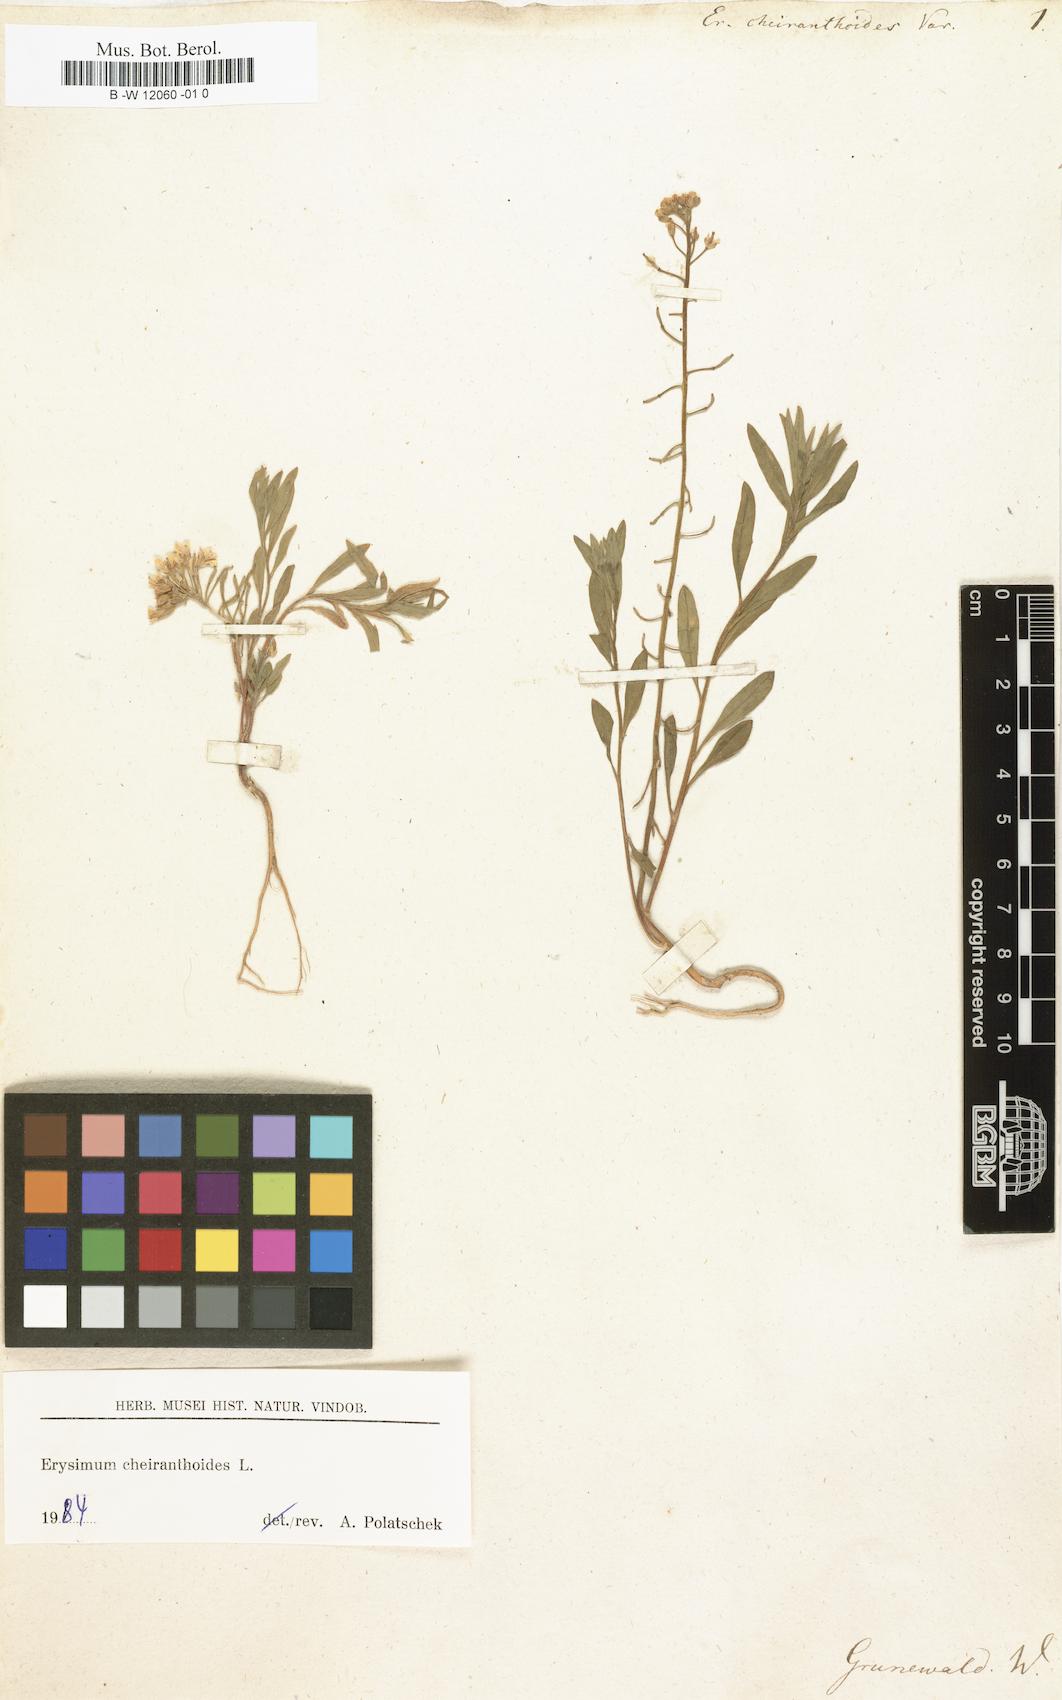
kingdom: Plantae
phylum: Tracheophyta
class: Magnoliopsida
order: Brassicales
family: Brassicaceae
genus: Erysimum
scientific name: Erysimum cheiranthoides
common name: Treacle mustard
